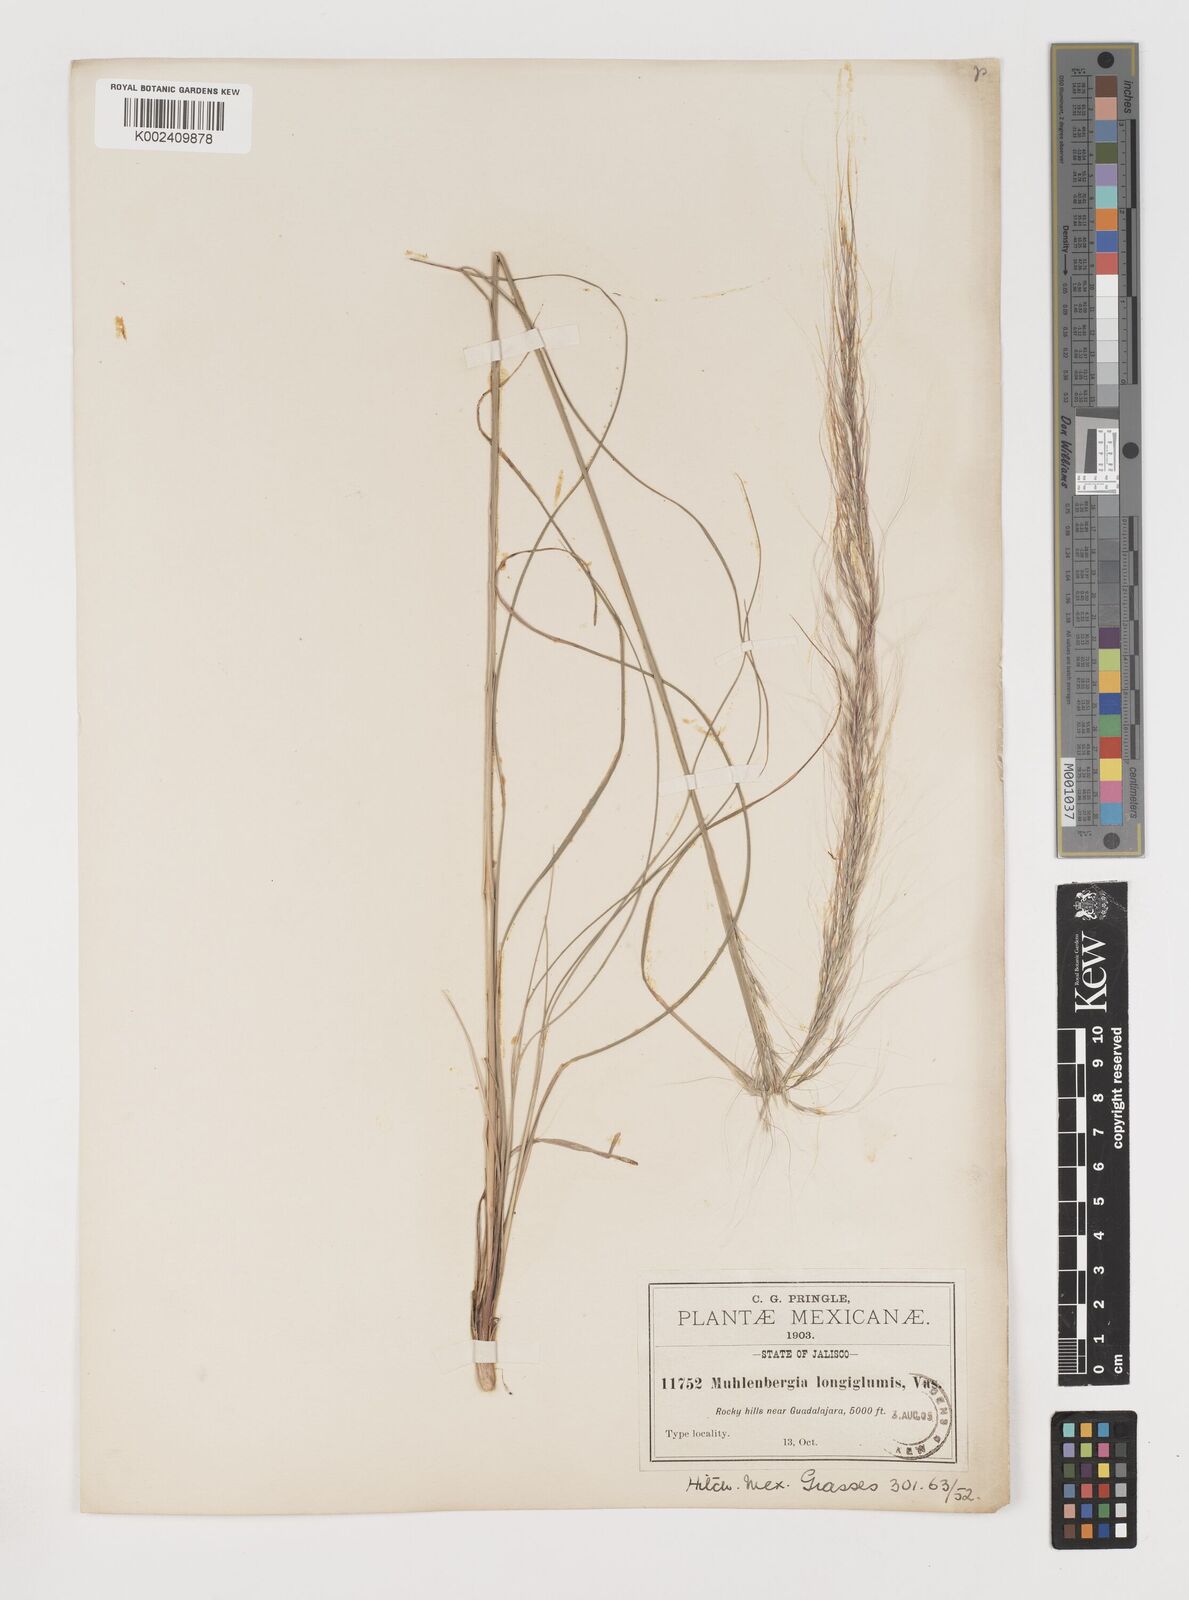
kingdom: Plantae
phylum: Tracheophyta
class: Liliopsida
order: Poales
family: Poaceae
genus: Muhlenbergia
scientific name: Muhlenbergia longiglumis
